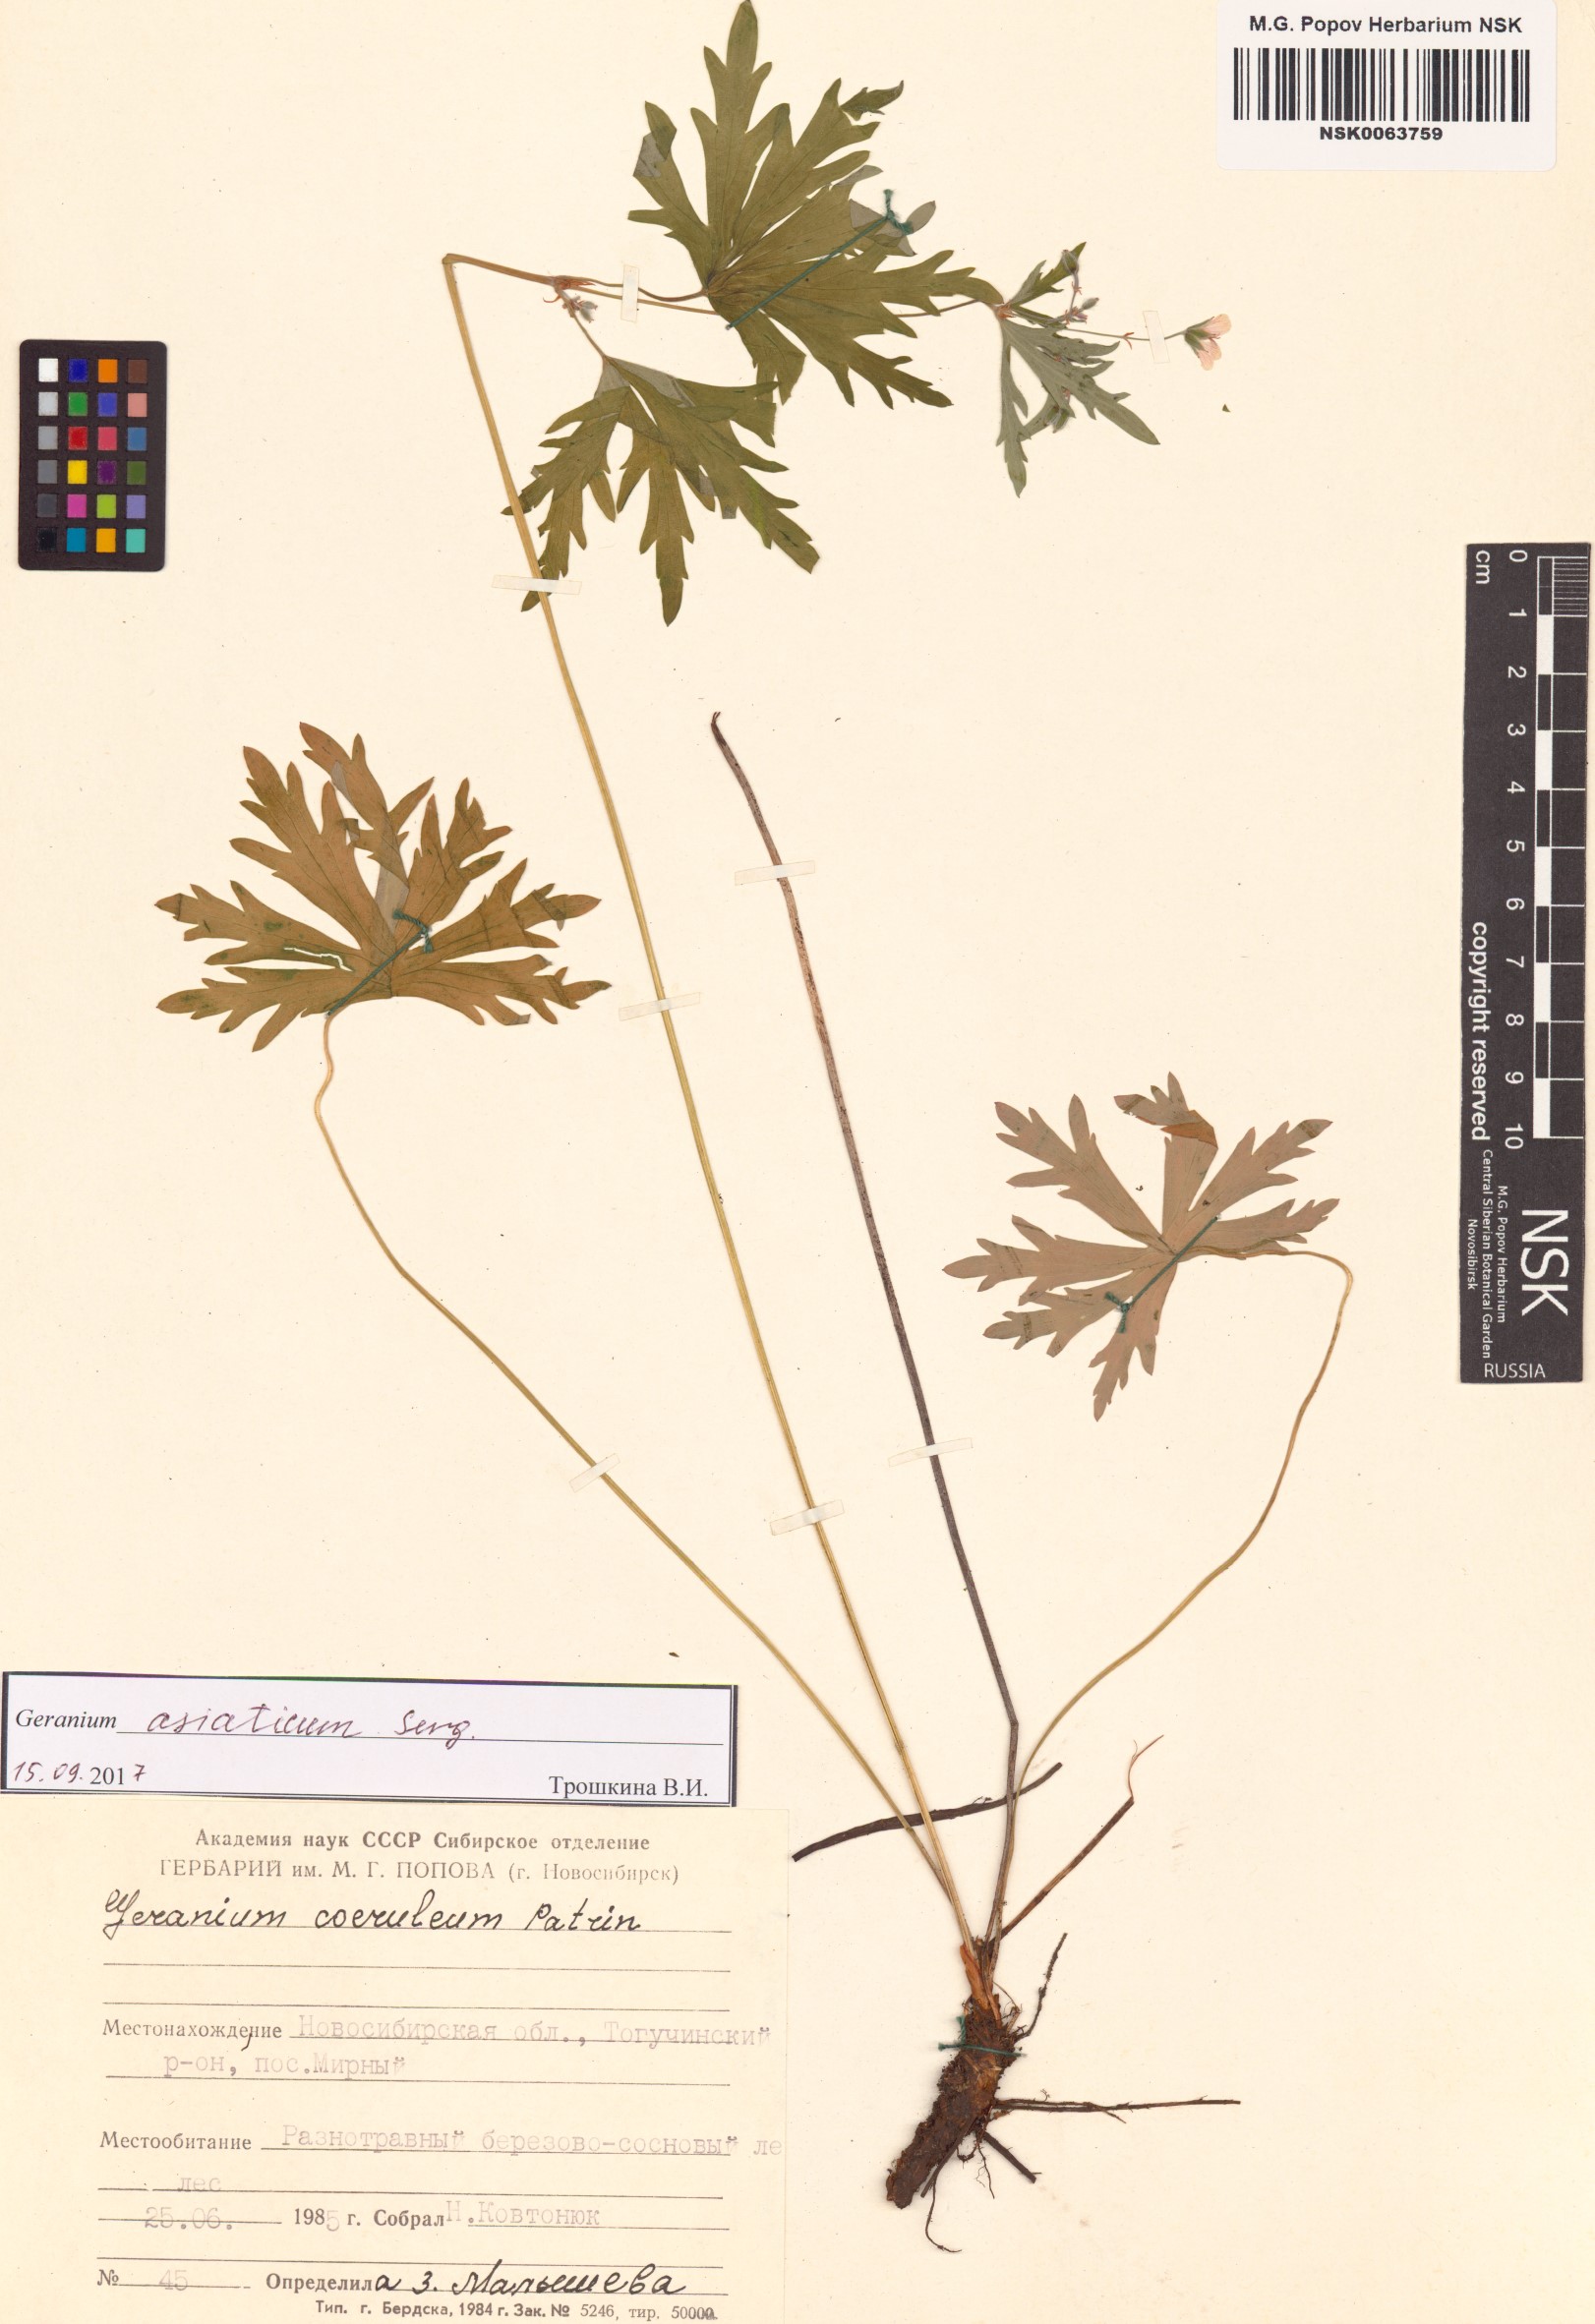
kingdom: Plantae
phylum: Tracheophyta
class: Magnoliopsida
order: Geraniales
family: Geraniaceae
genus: Geranium
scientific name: Geranium pseudosibiricum
